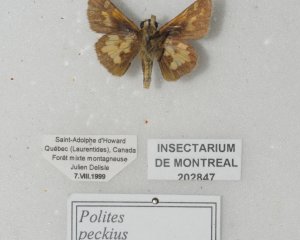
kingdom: Animalia
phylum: Arthropoda
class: Insecta
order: Lepidoptera
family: Hesperiidae
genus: Polites
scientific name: Polites coras
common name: Peck's Skipper
